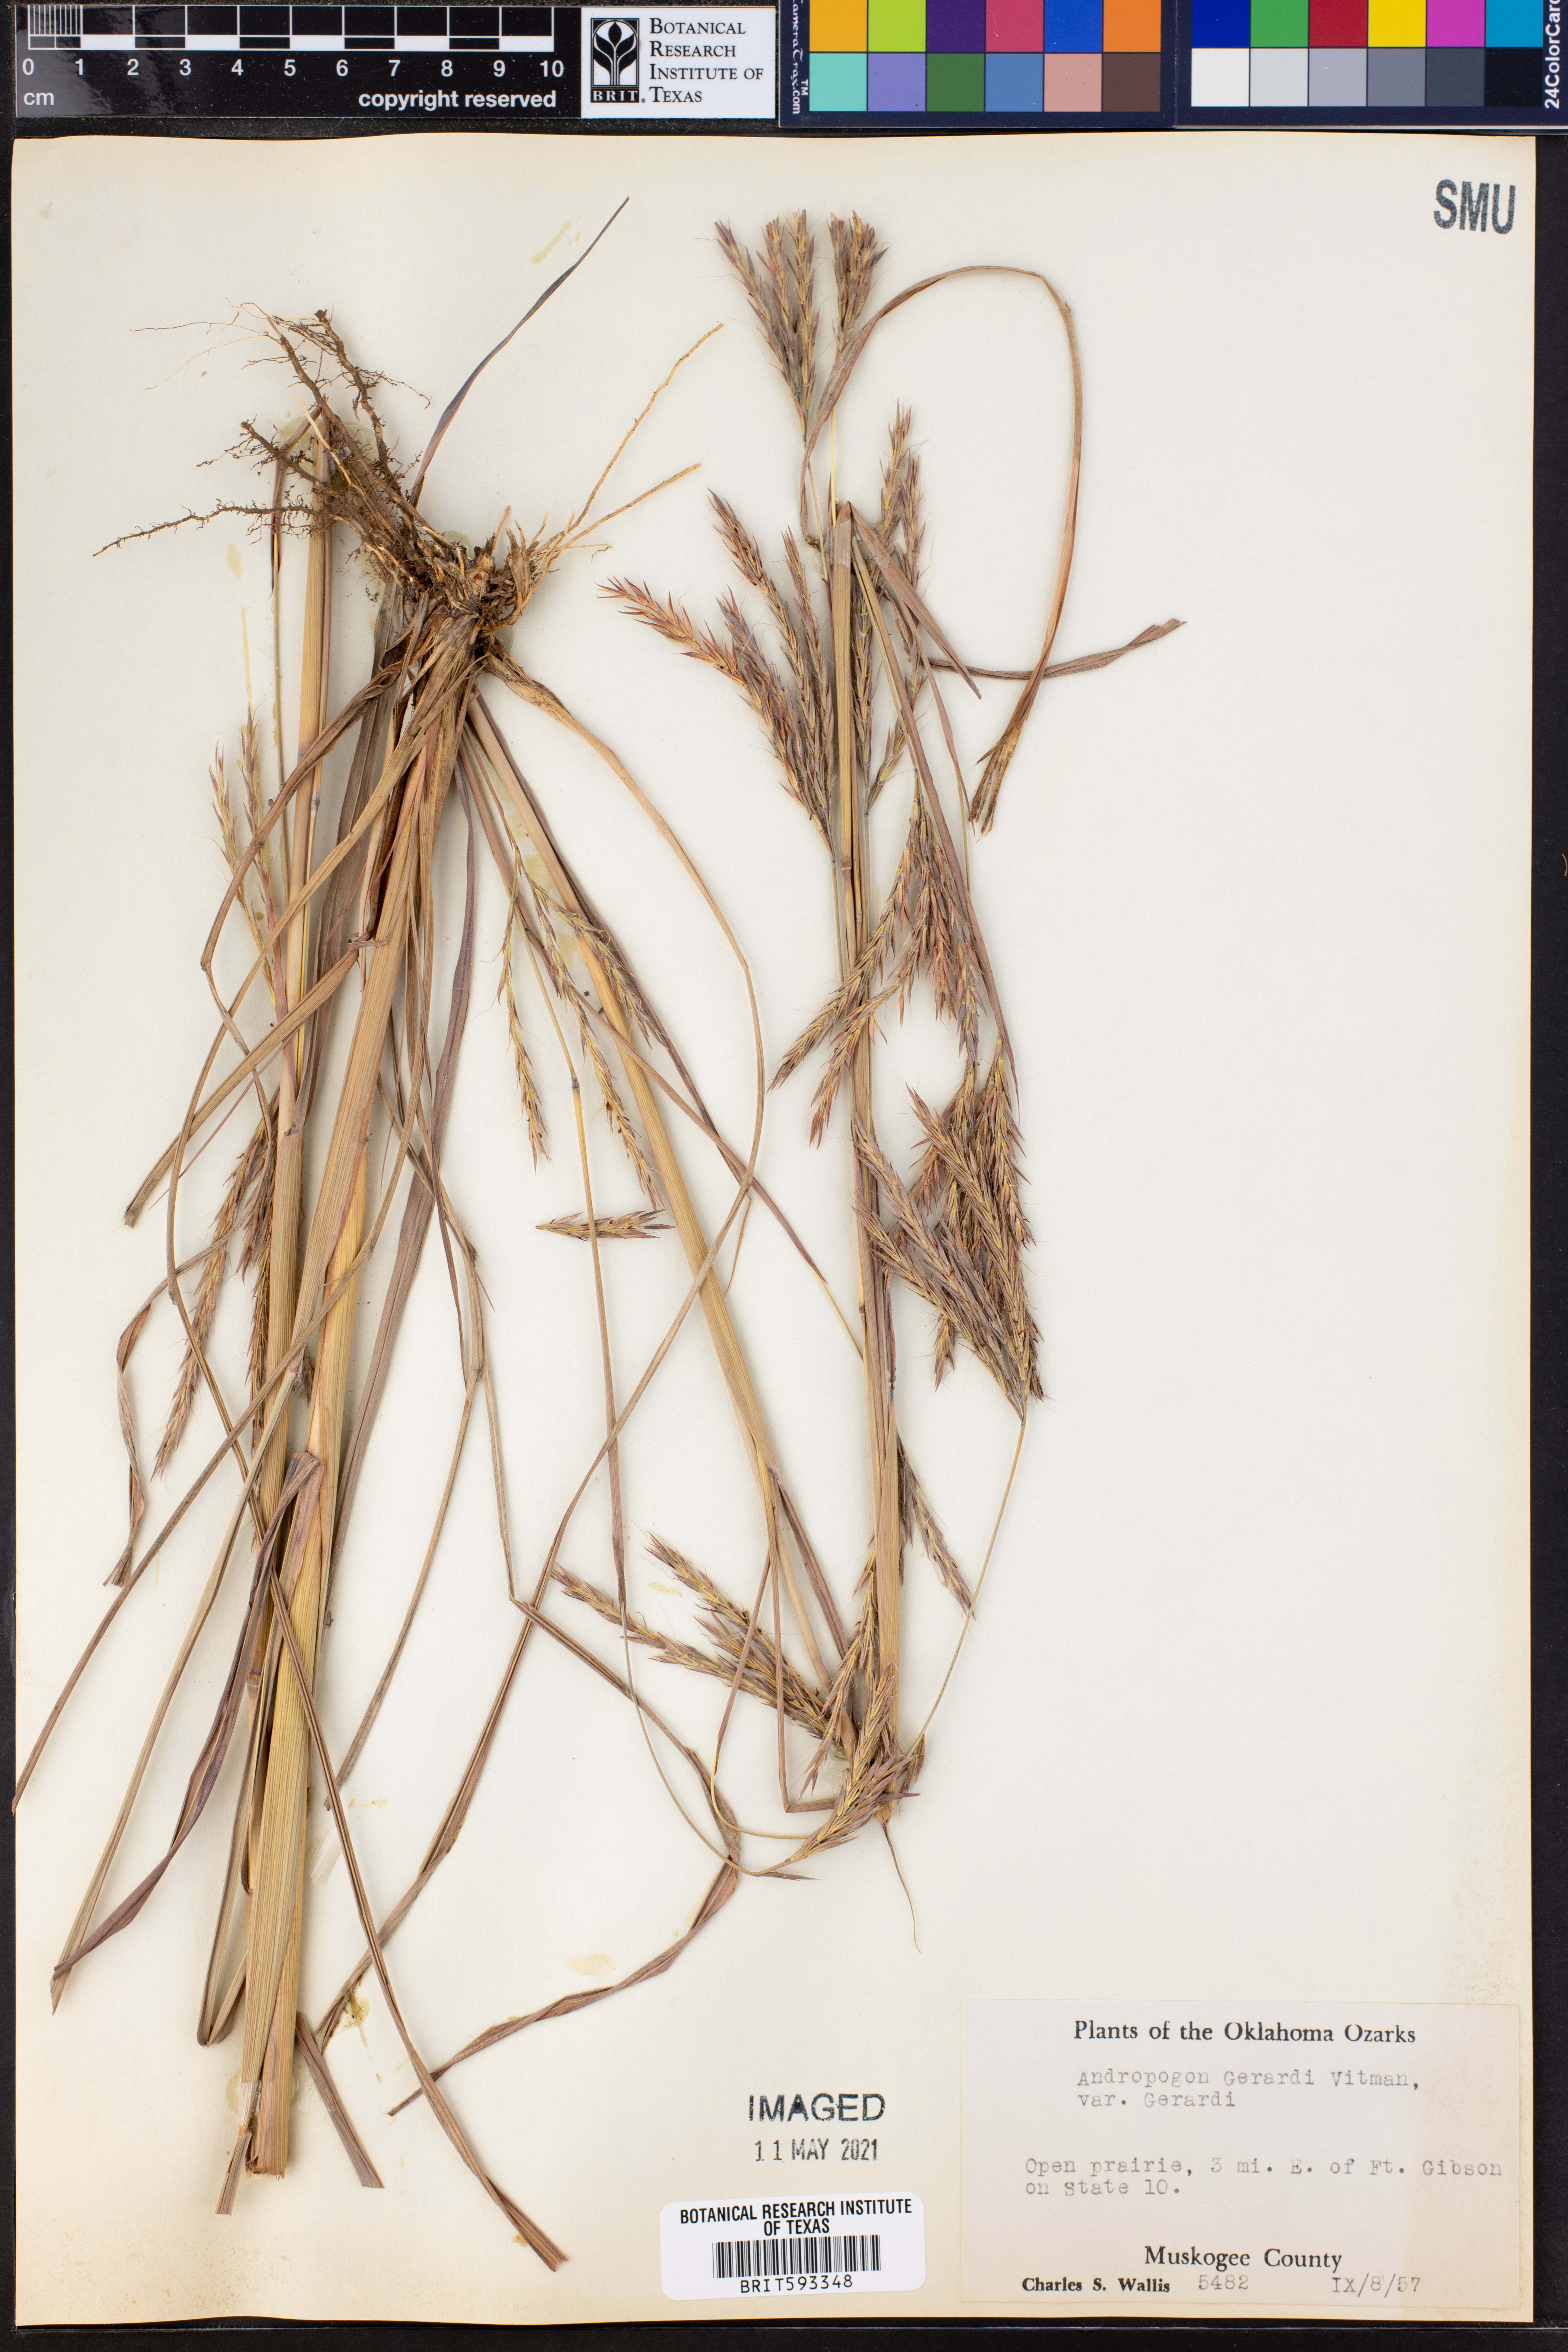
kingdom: Plantae
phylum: Tracheophyta
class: Liliopsida
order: Poales
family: Poaceae
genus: Andropogon
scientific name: Andropogon gerardi
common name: Big bluestem
